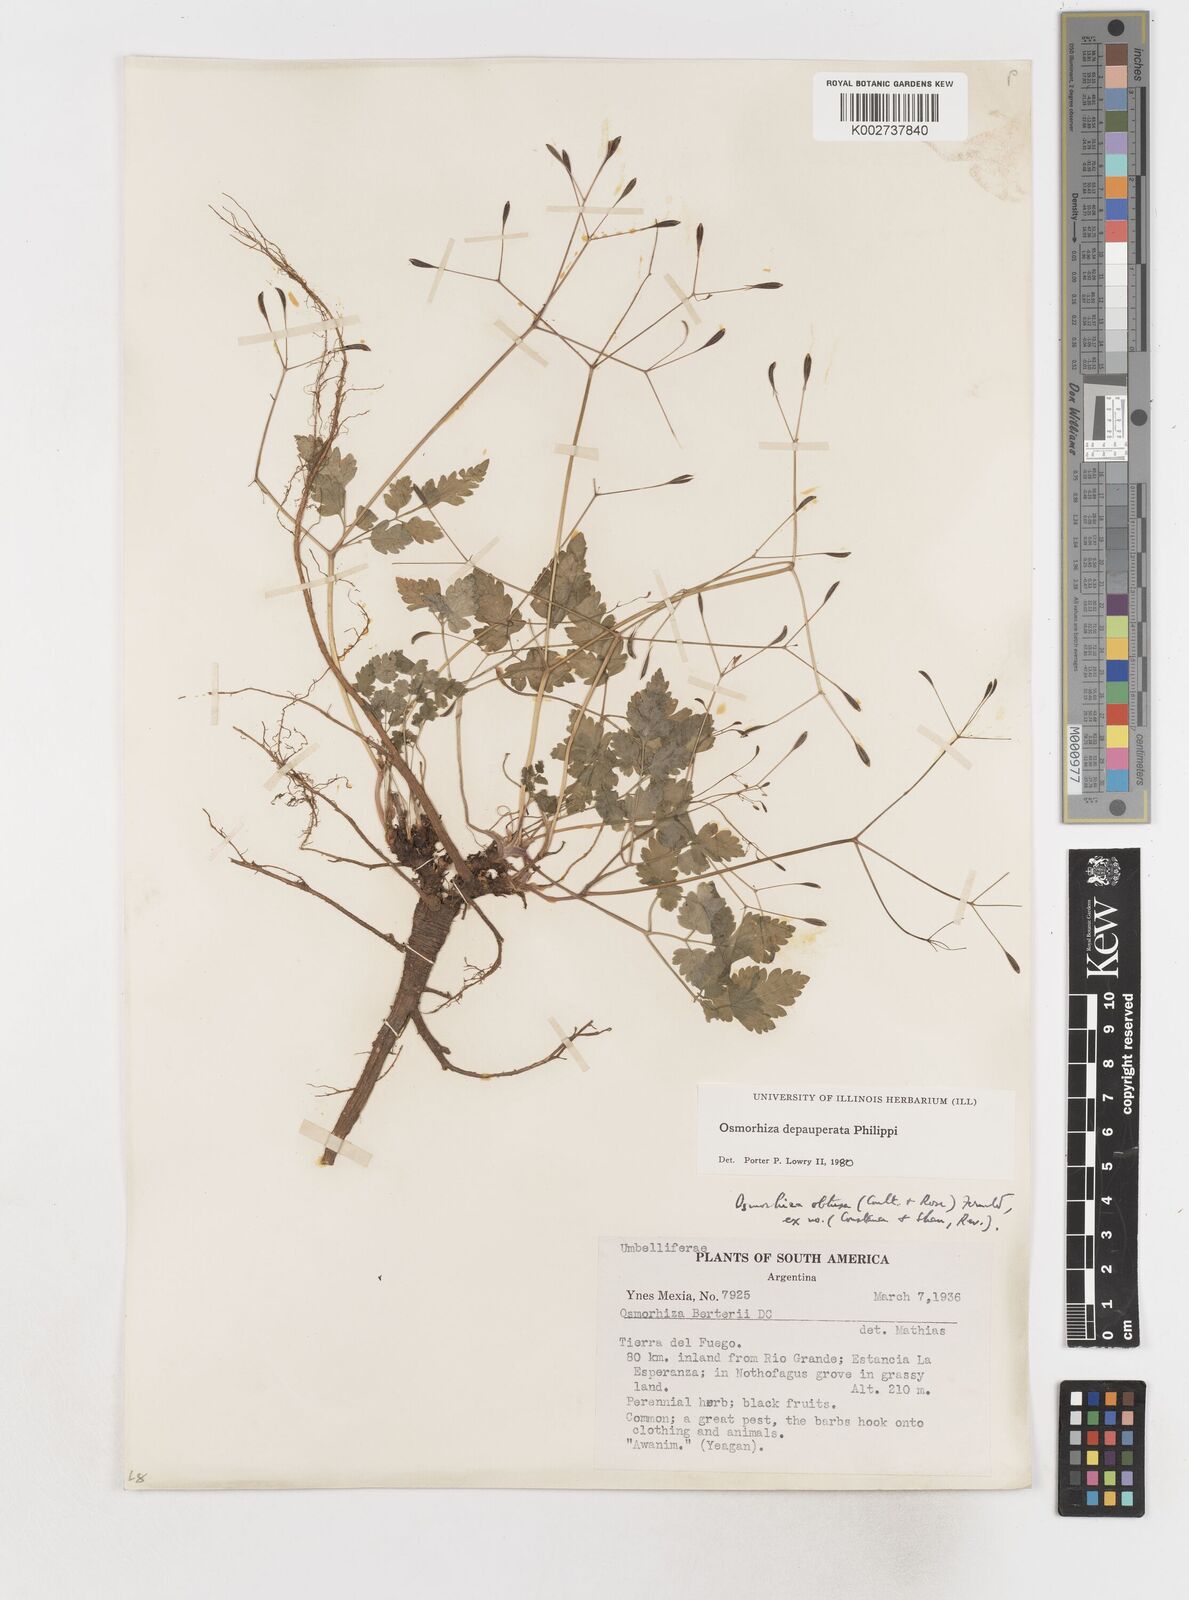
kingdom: Plantae
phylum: Tracheophyta
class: Magnoliopsida
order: Apiales
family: Apiaceae
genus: Osmorhiza
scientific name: Osmorhiza depauperata
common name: Blunt sweet cicely
